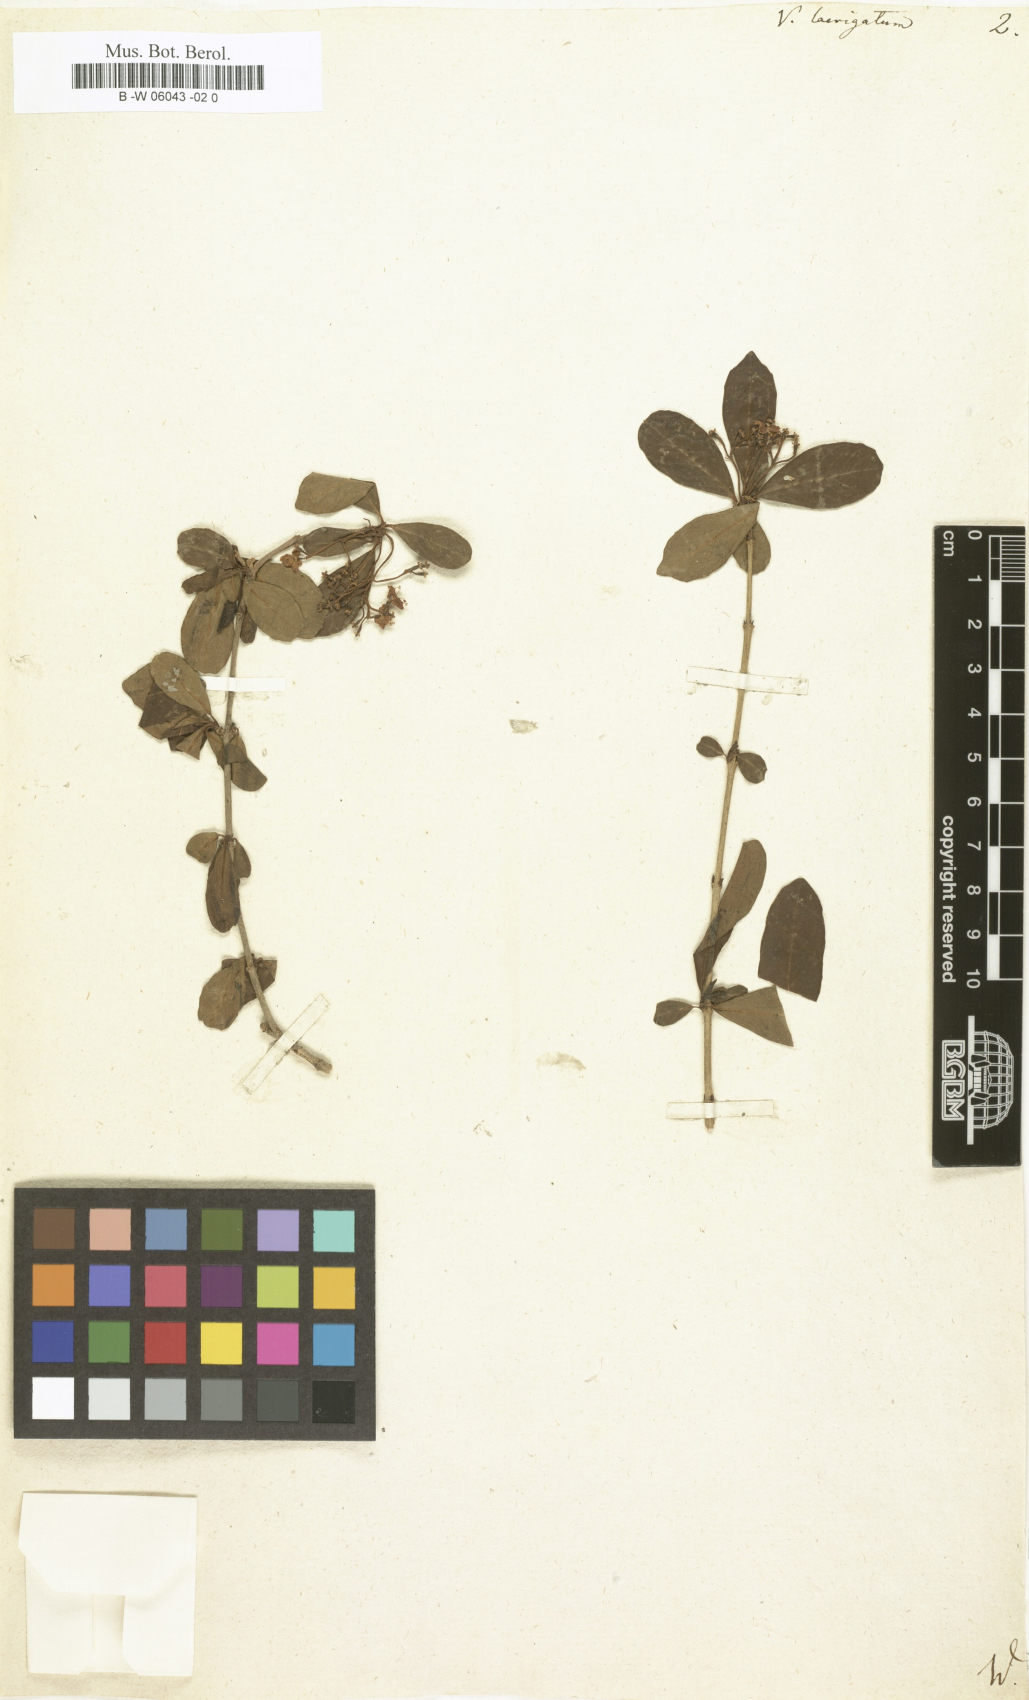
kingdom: Plantae
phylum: Tracheophyta
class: Magnoliopsida
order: Dipsacales
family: Viburnaceae
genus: Viburnum
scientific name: Viburnum
